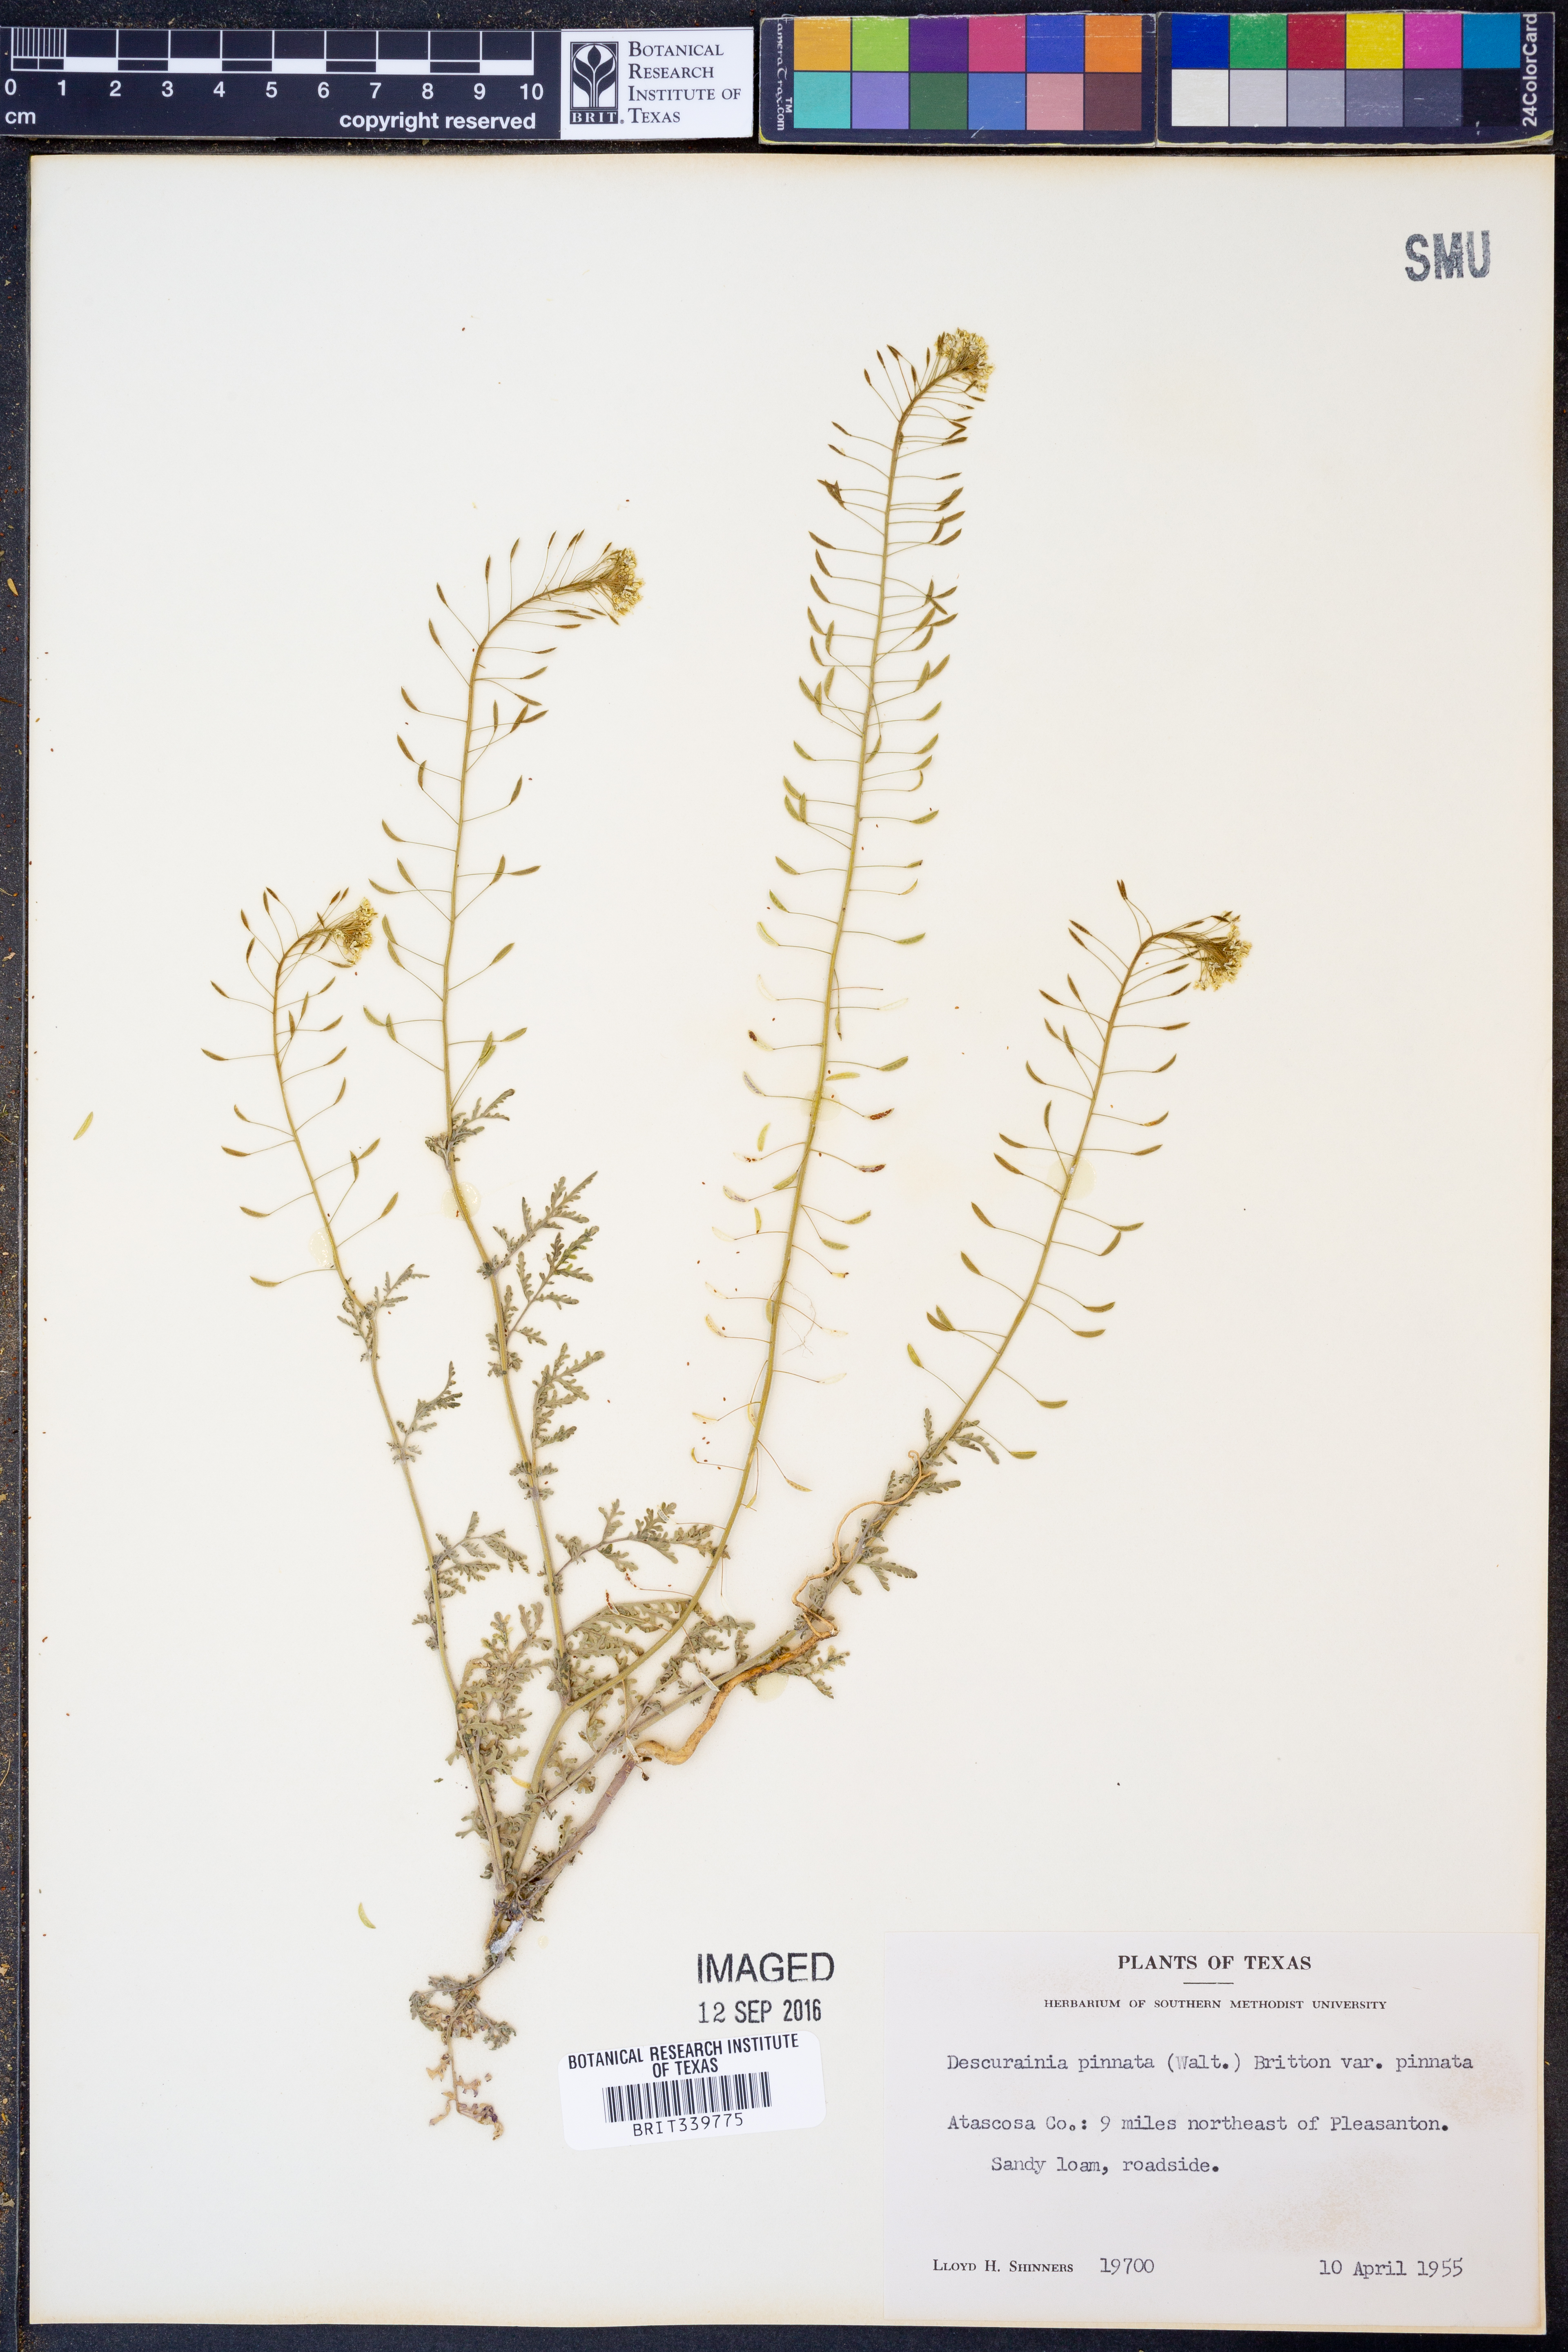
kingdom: Plantae
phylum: Tracheophyta
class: Magnoliopsida
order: Brassicales
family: Brassicaceae
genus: Descurainia
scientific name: Descurainia pinnata
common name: Western tansy mustard
